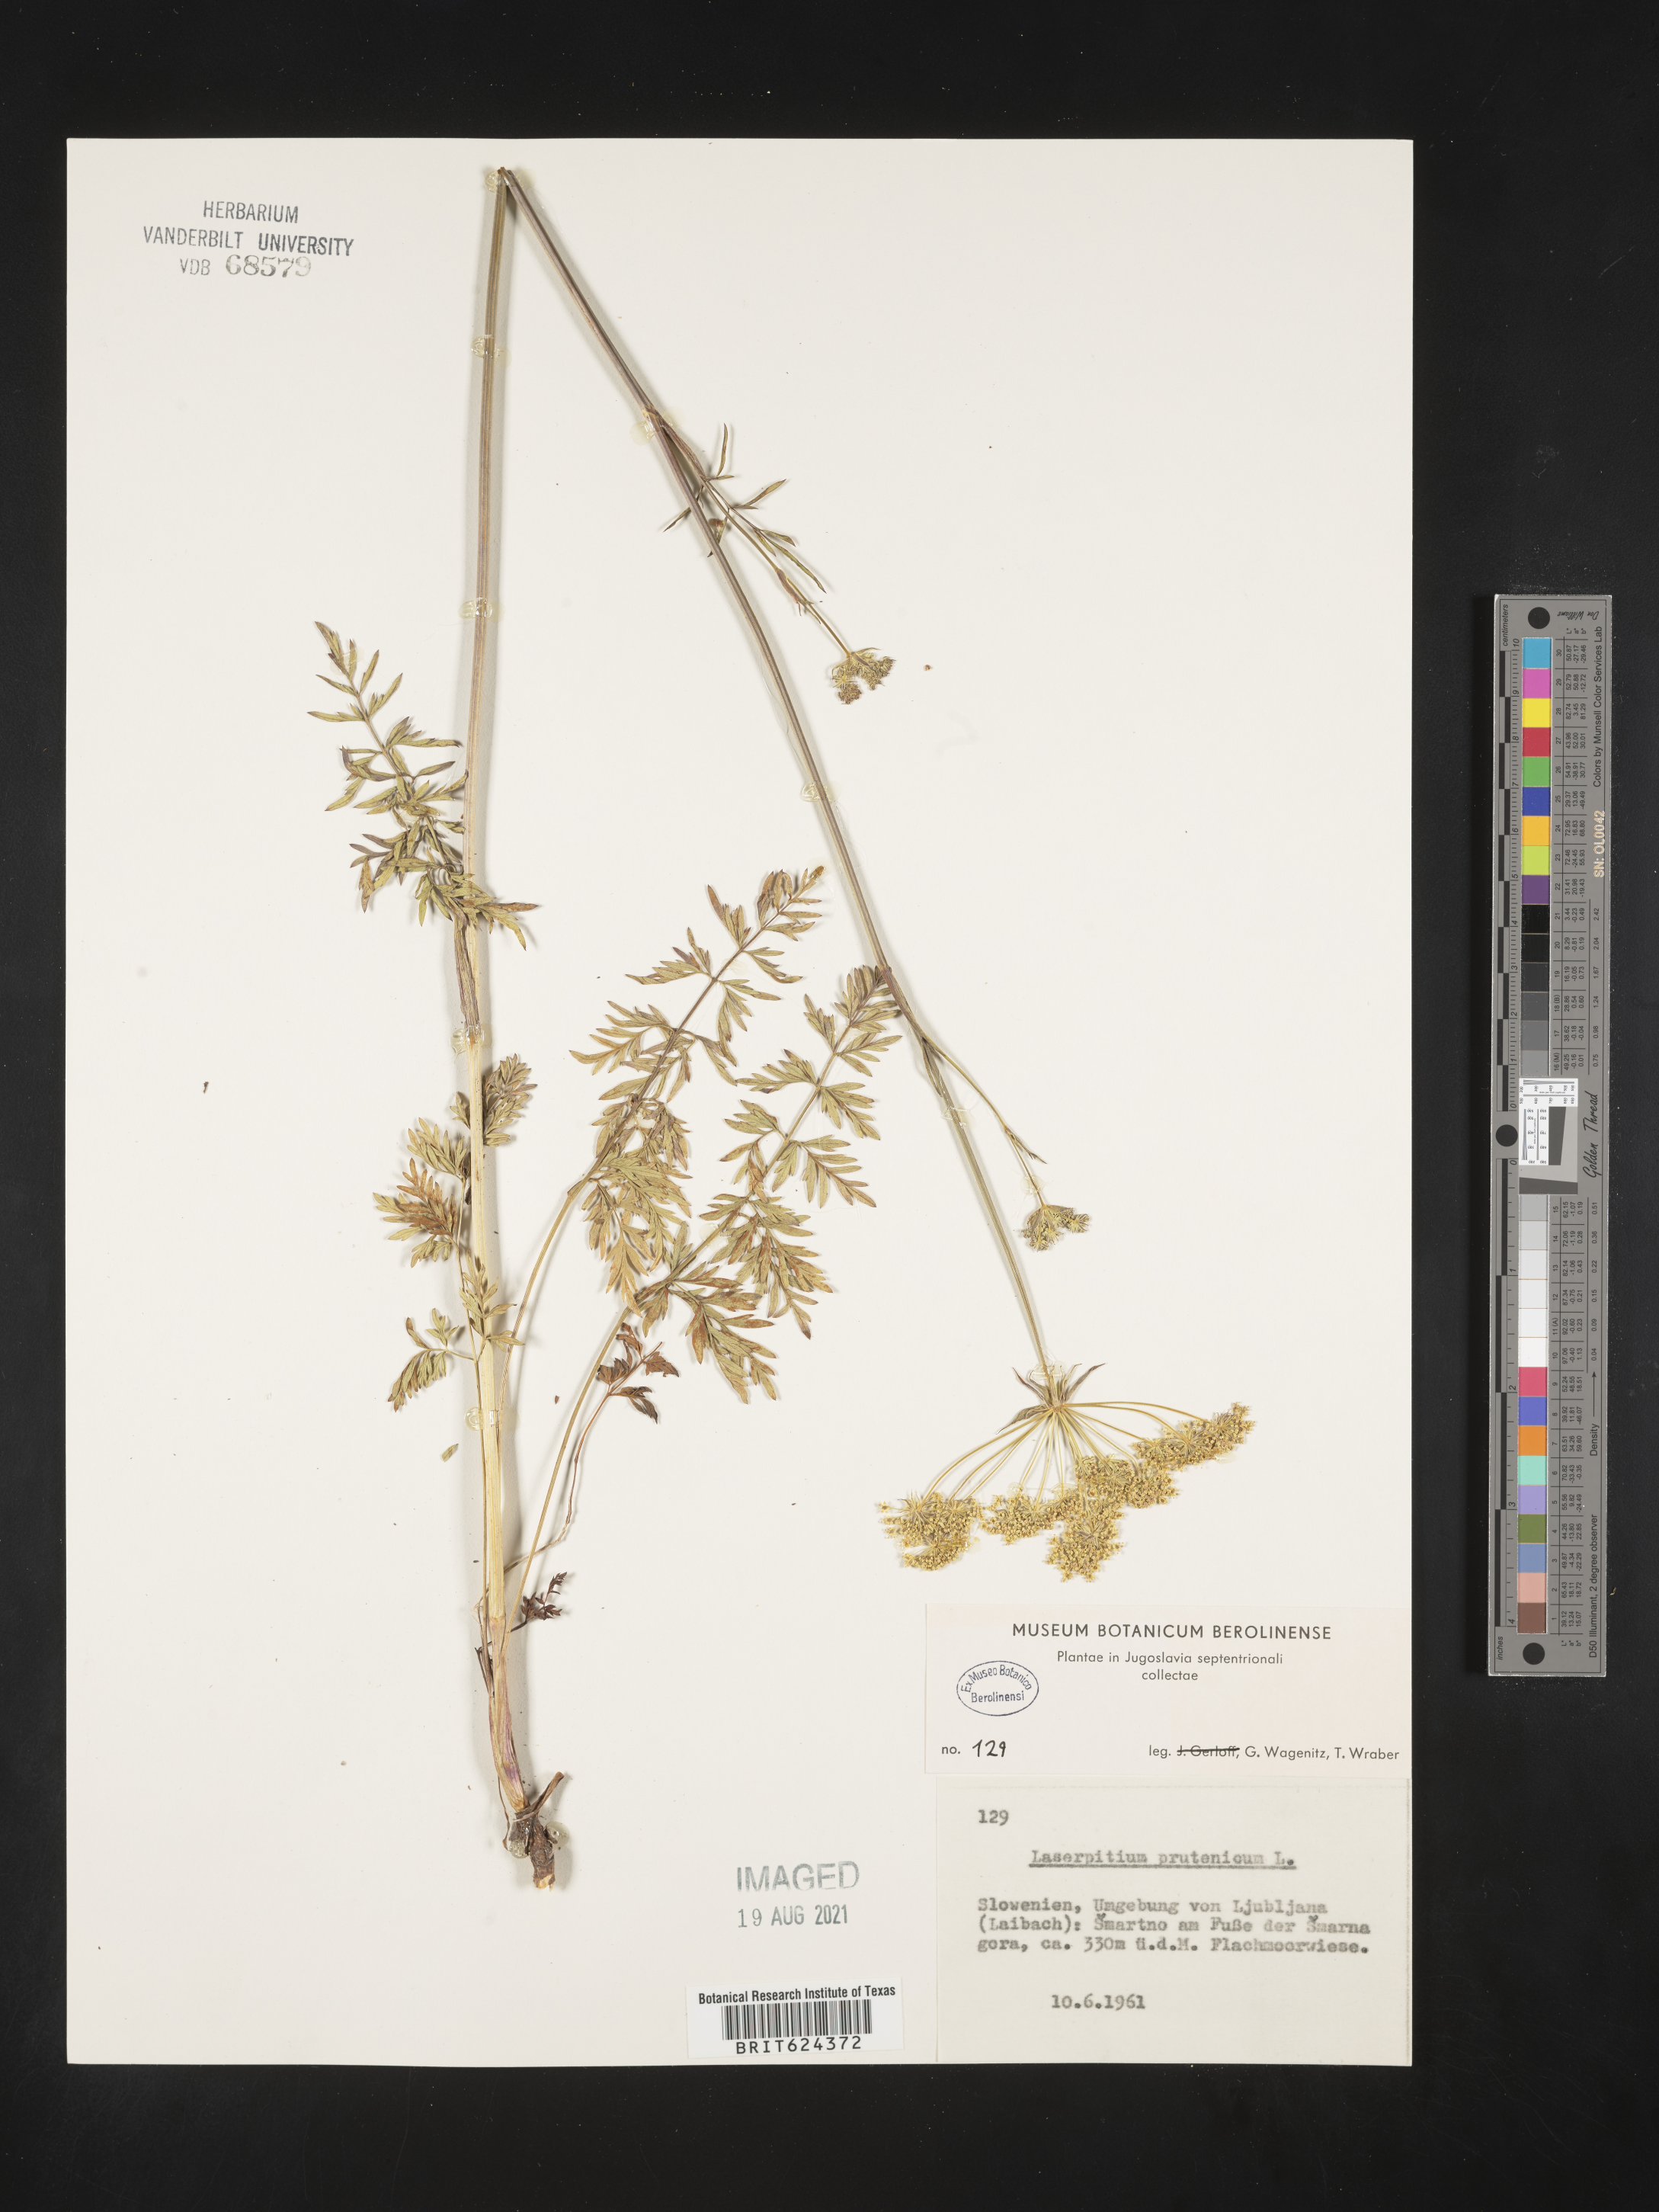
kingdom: Plantae
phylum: Tracheophyta
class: Magnoliopsida
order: Apiales
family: Apiaceae
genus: Silphiodaucus
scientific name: Silphiodaucus prutenicus
